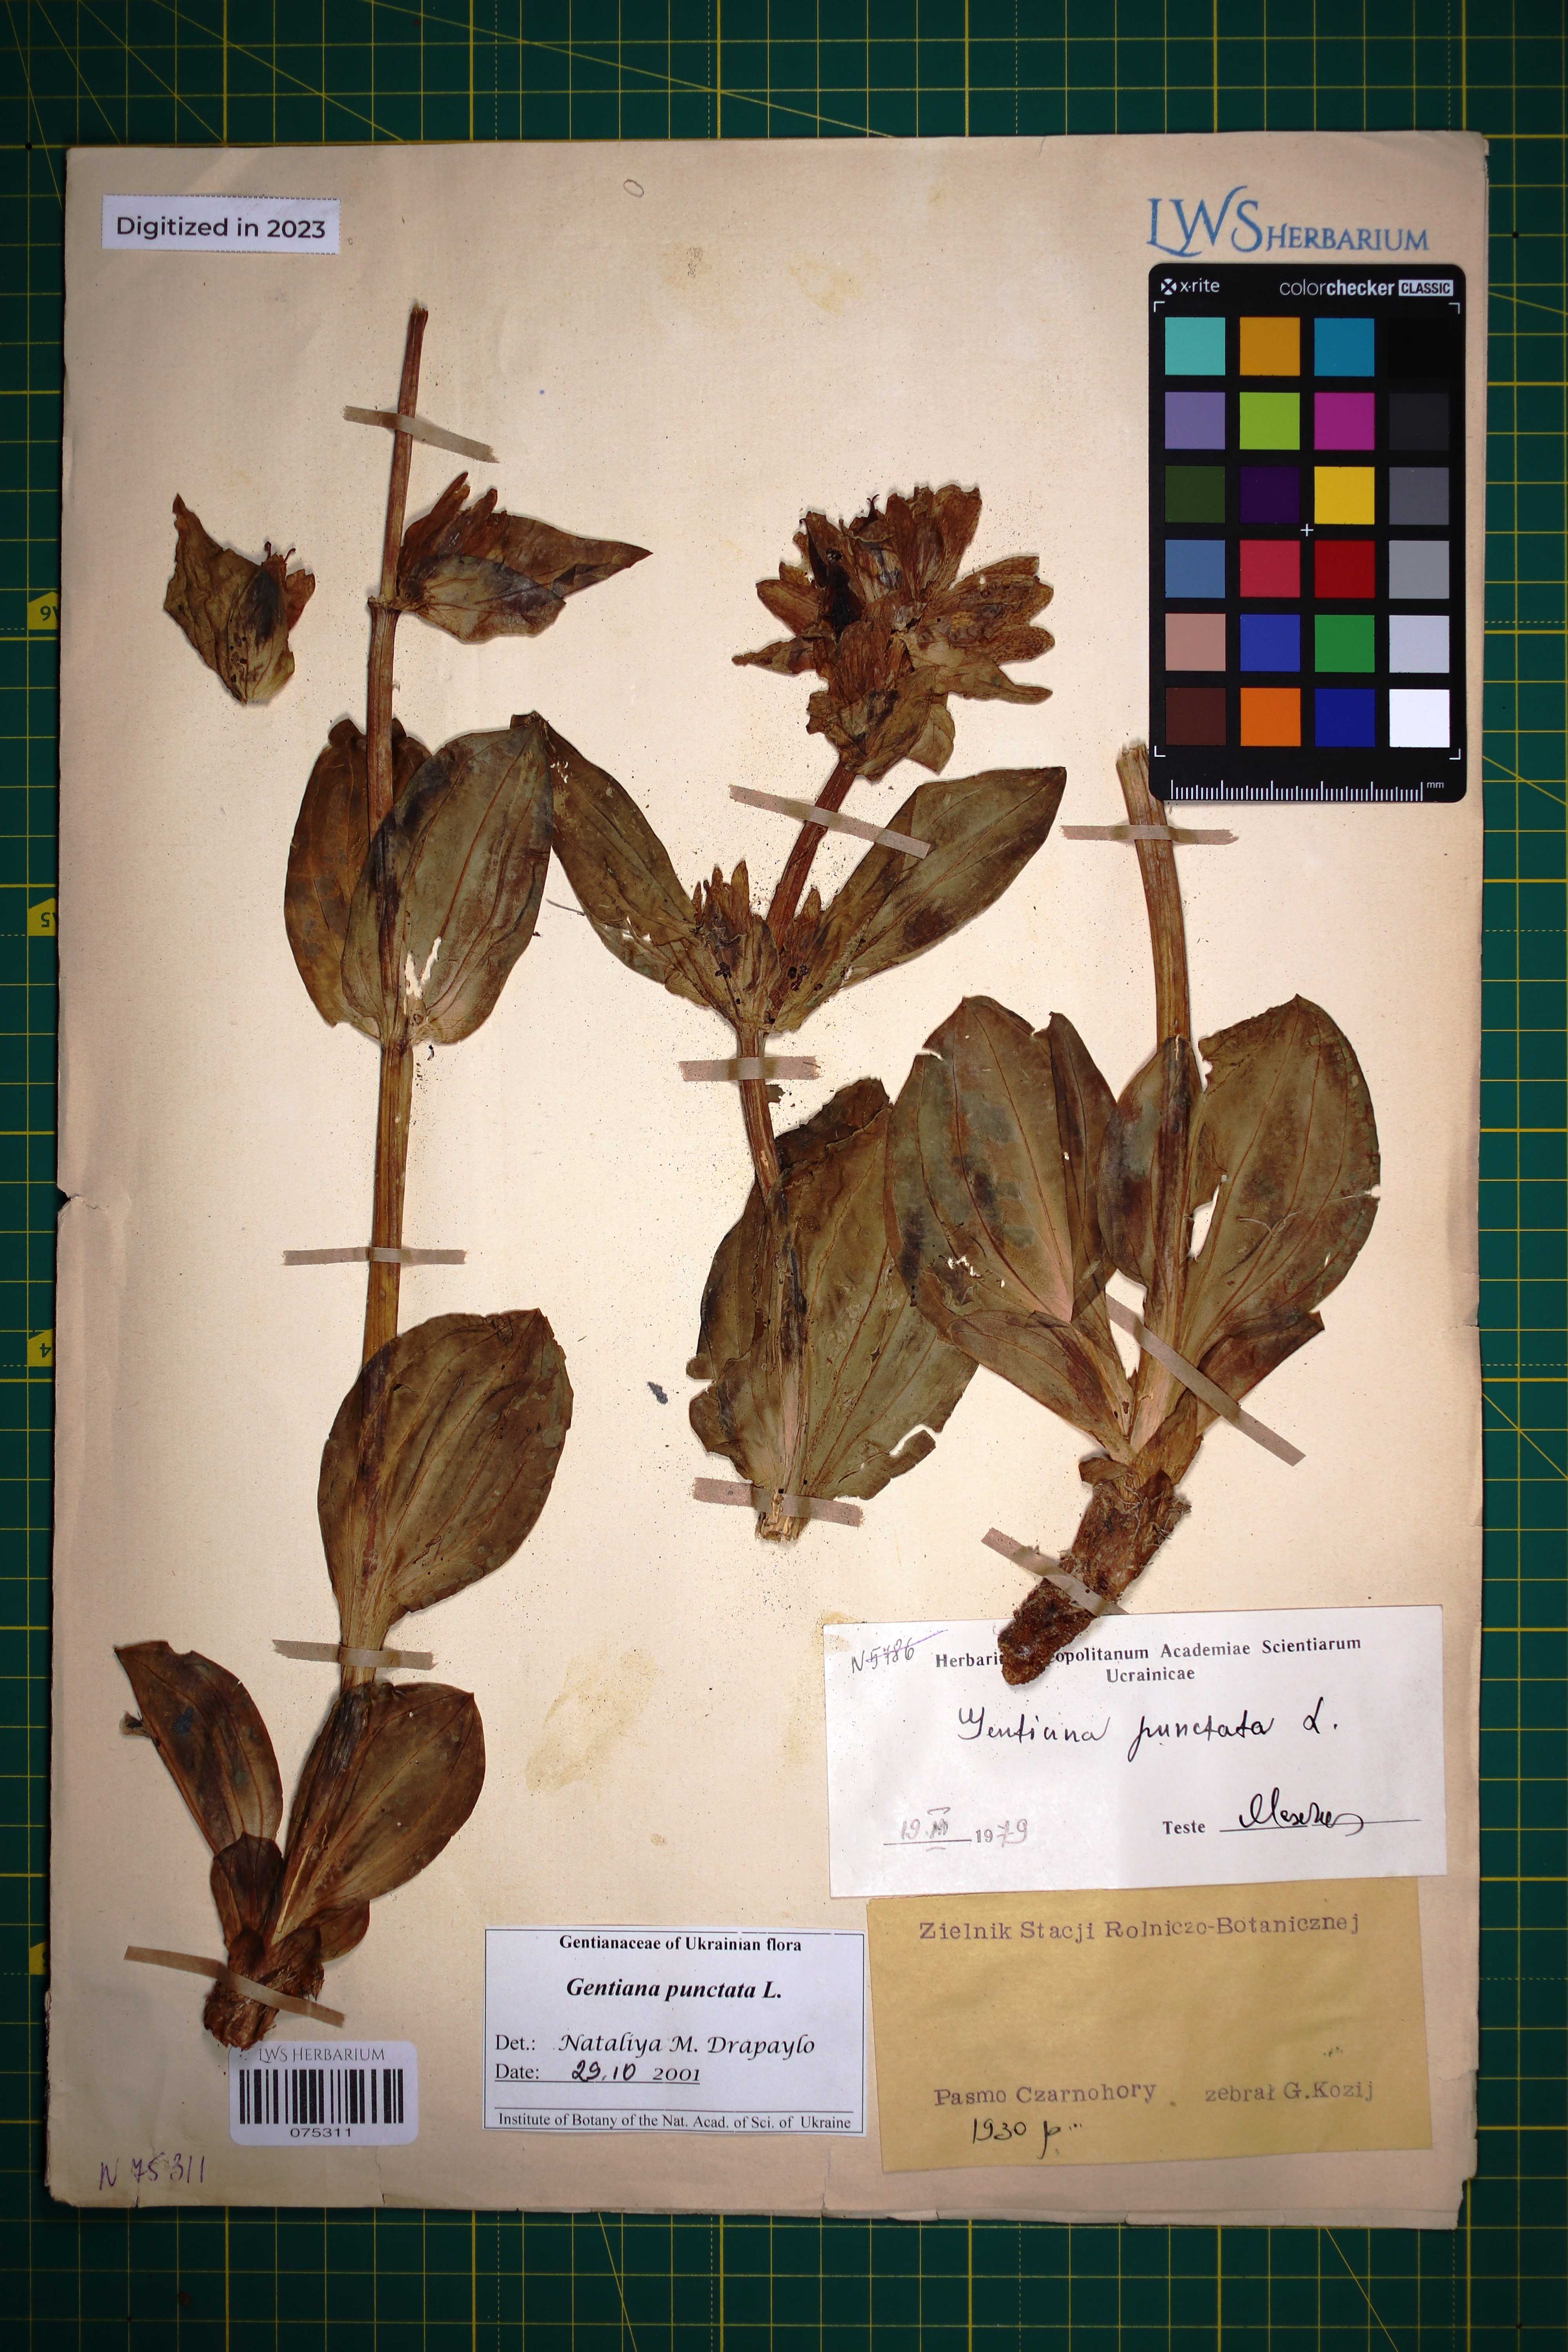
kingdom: Plantae
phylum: Tracheophyta
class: Magnoliopsida
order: Gentianales
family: Gentianaceae
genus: Gentiana
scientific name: Gentiana punctata
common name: Spotted gentian
